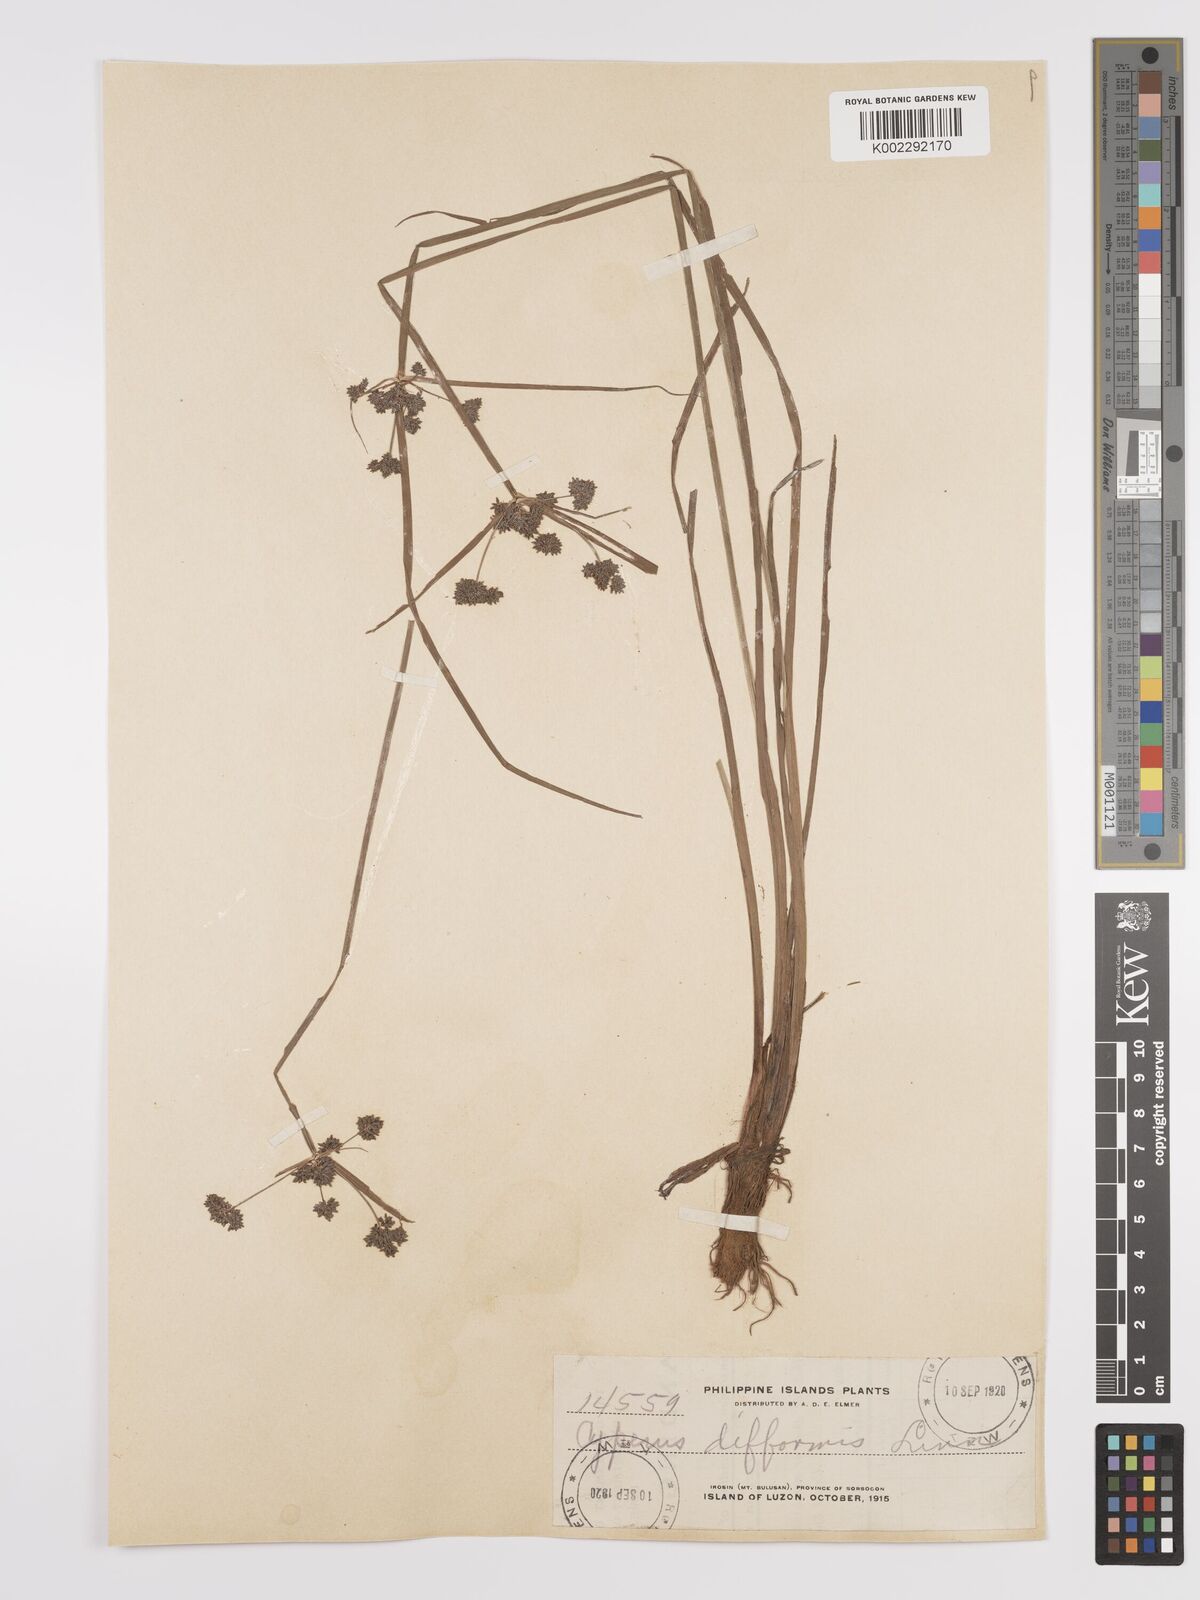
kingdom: Plantae
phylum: Tracheophyta
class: Liliopsida
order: Poales
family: Cyperaceae
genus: Cyperus
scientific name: Cyperus difformis
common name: Variable flatsedge
